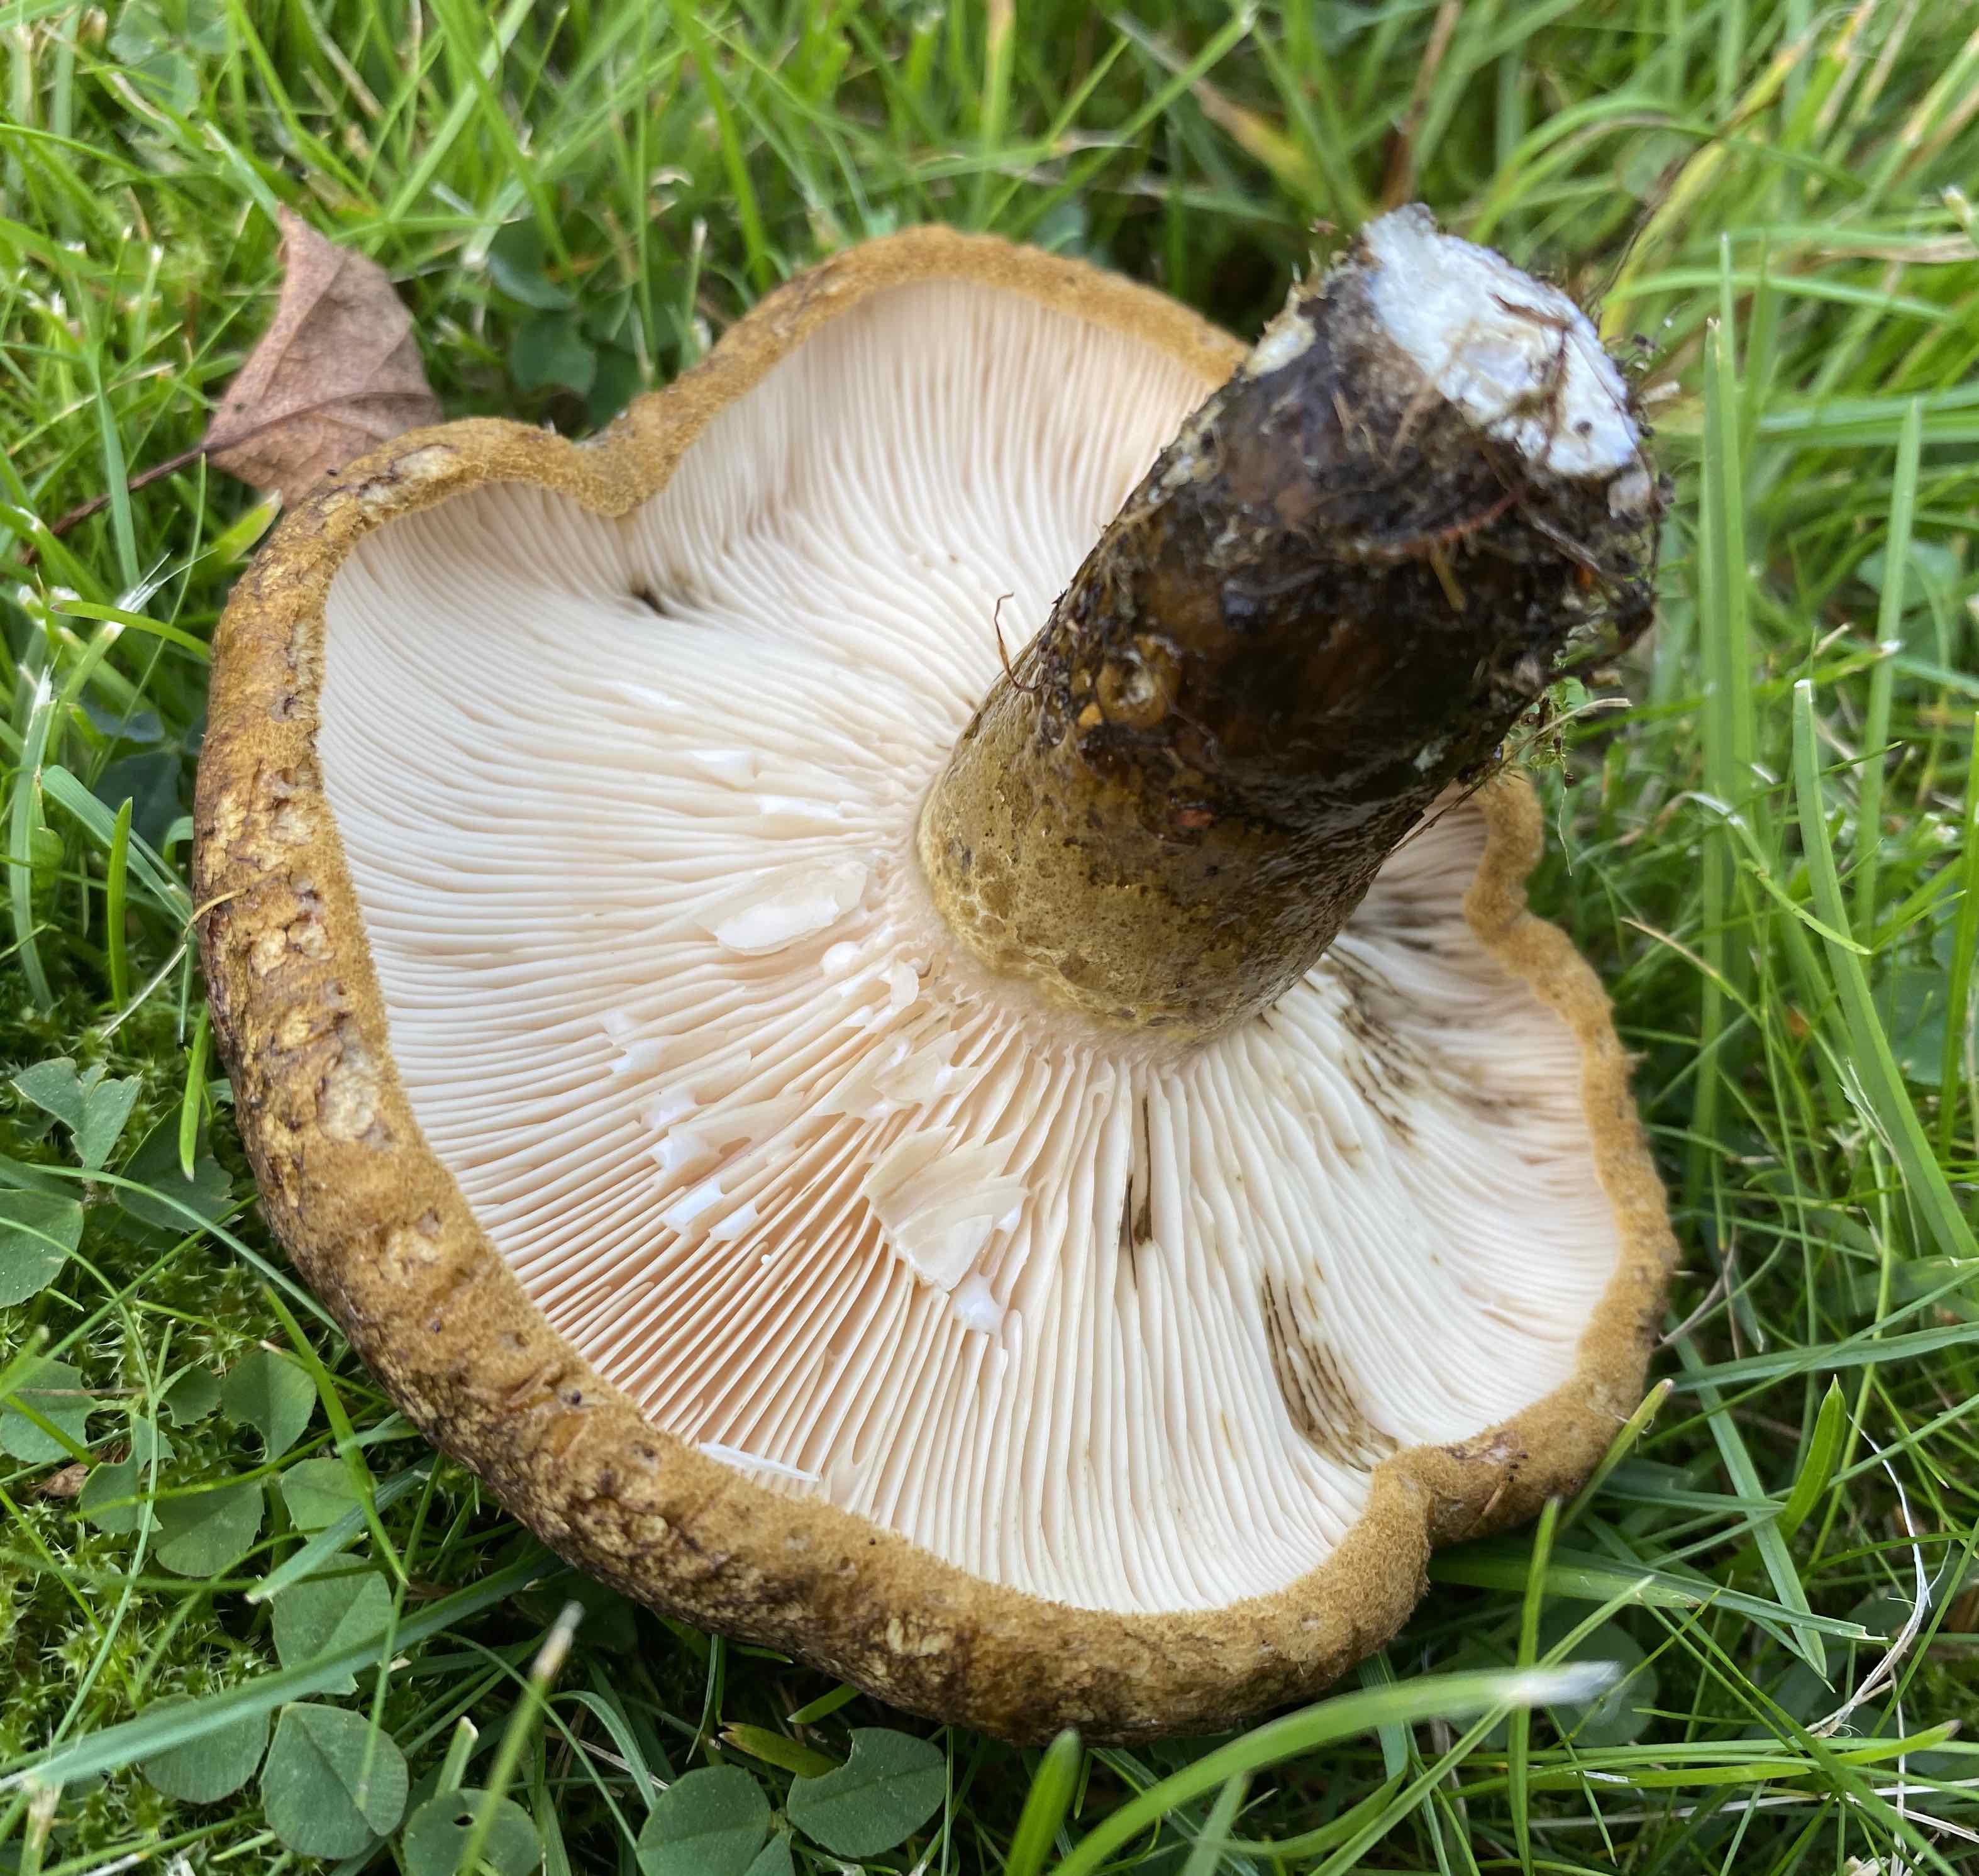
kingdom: Fungi
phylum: Basidiomycota
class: Agaricomycetes
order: Russulales
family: Russulaceae
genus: Lactarius
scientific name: Lactarius necator
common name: manddraber-mælkehat
